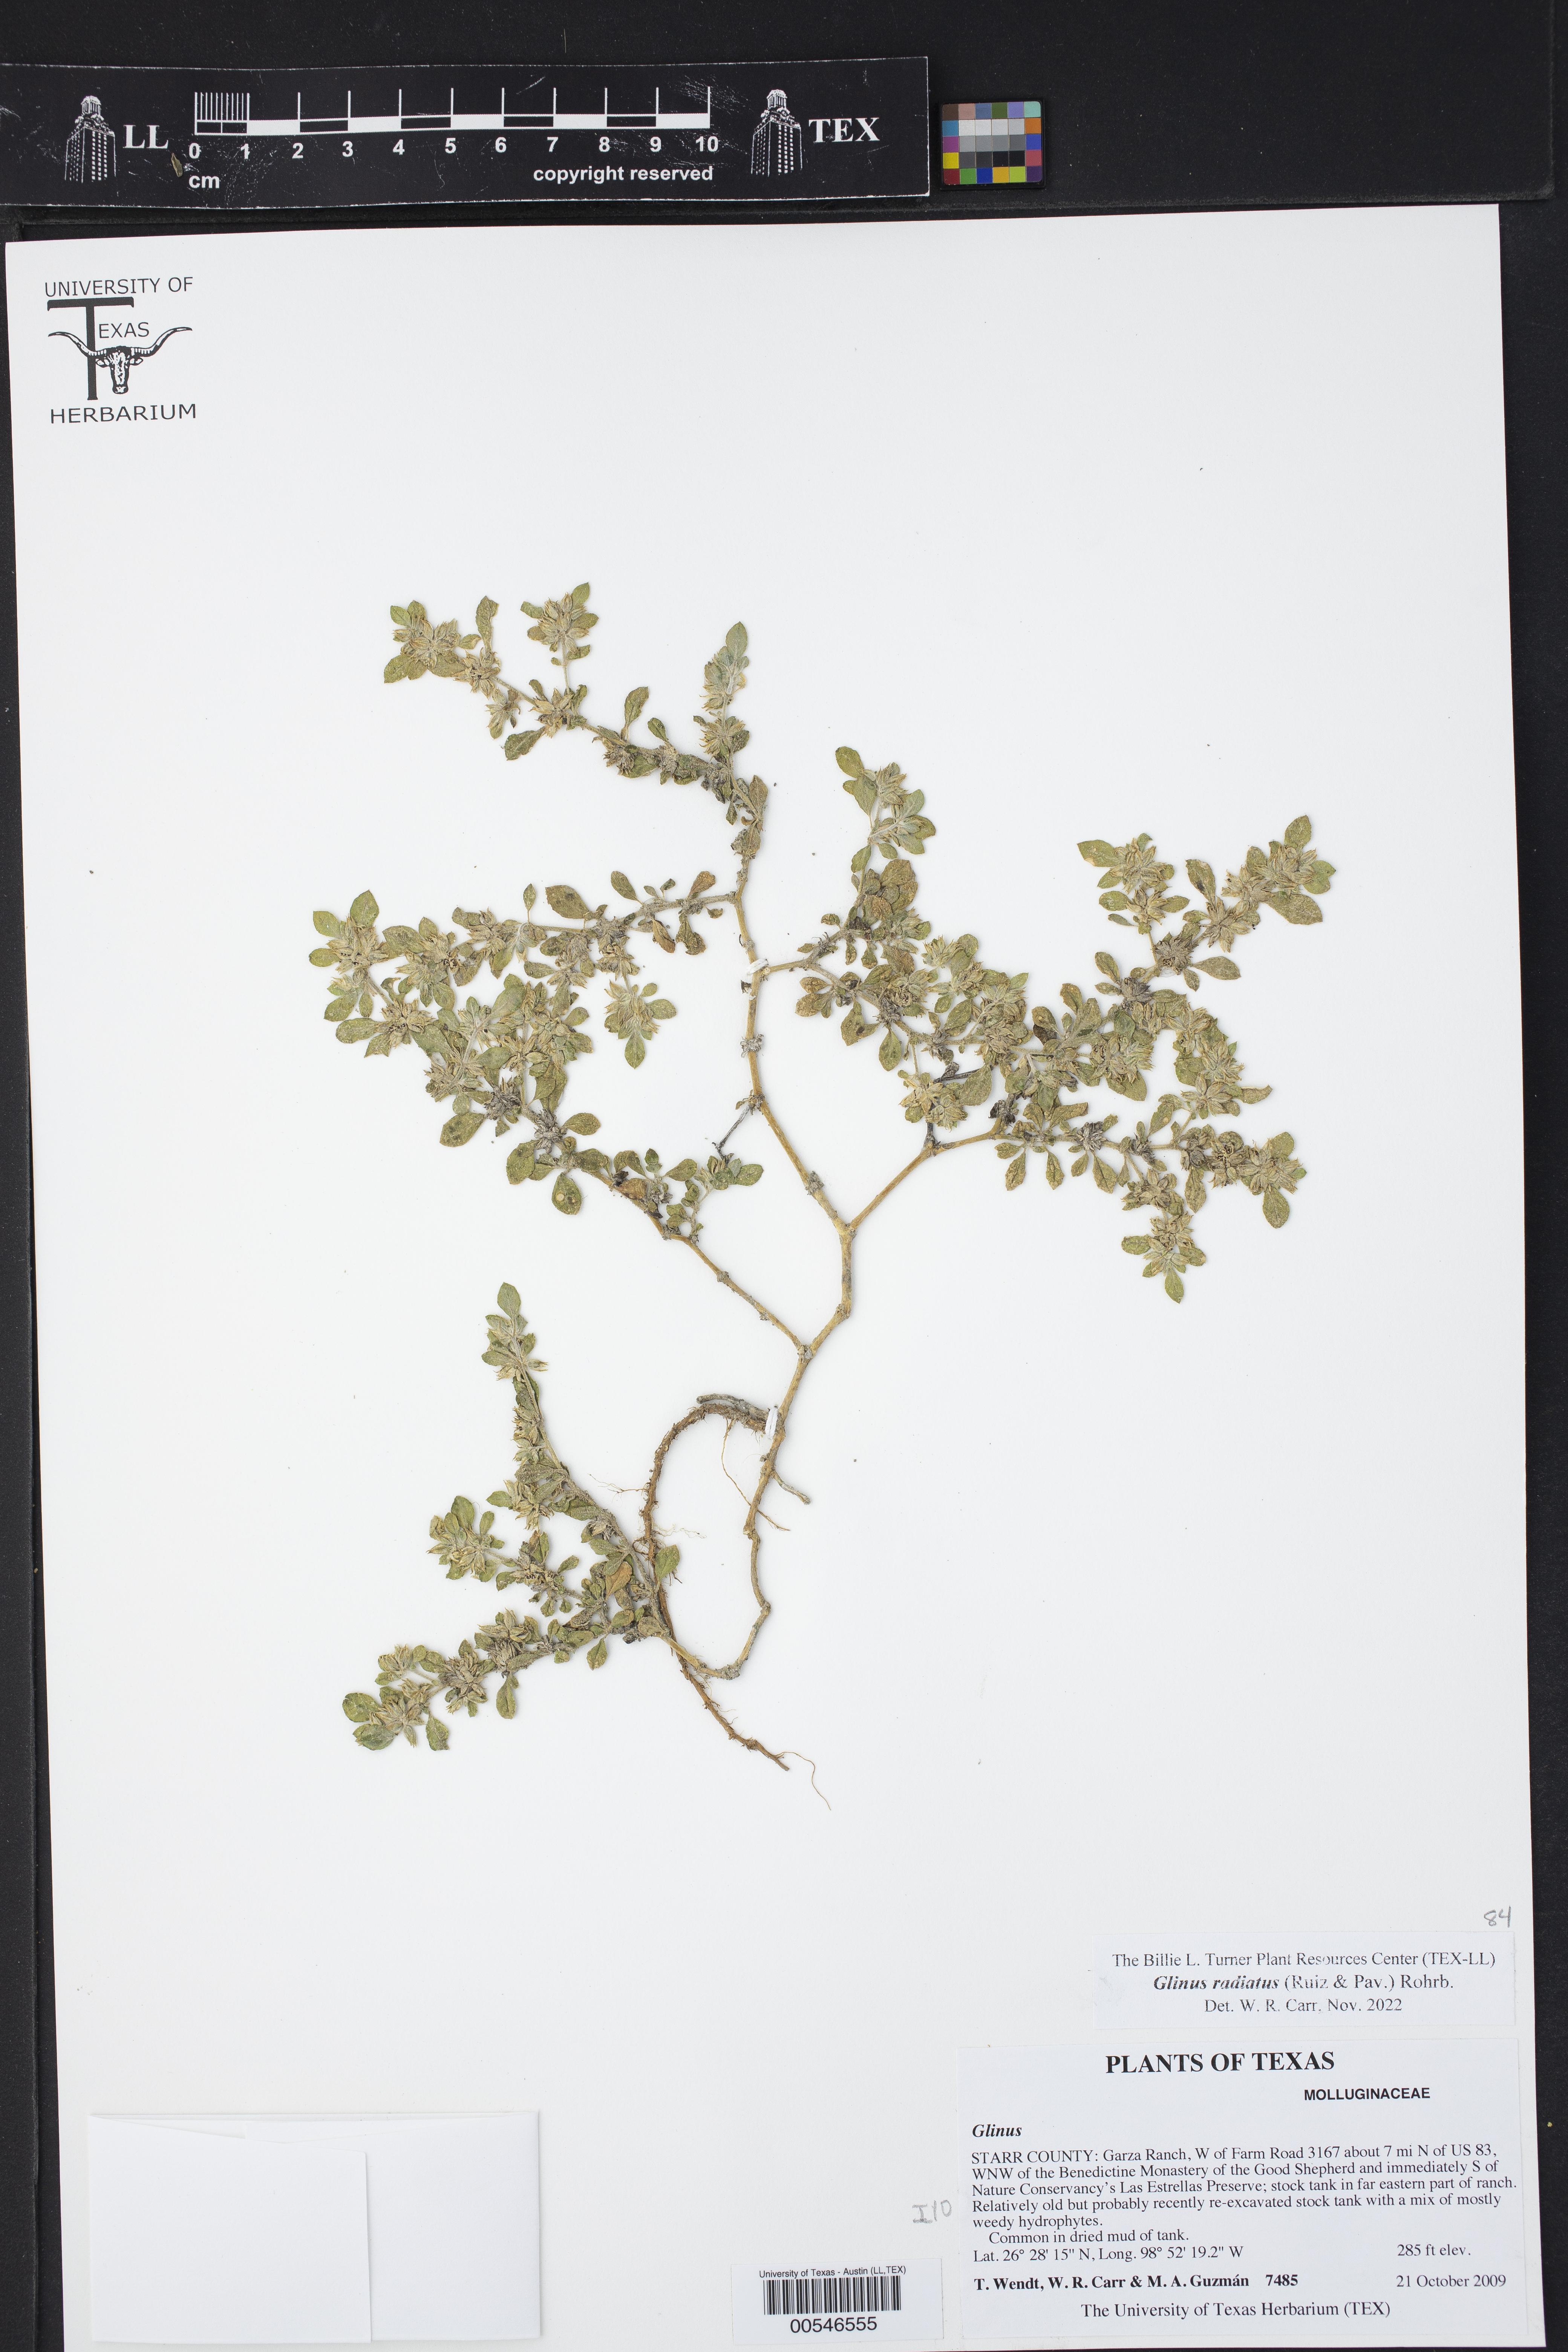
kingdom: Plantae
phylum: Tracheophyta
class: Magnoliopsida
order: Caryophyllales
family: Molluginaceae
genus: Glinus
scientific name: Glinus radiatus
